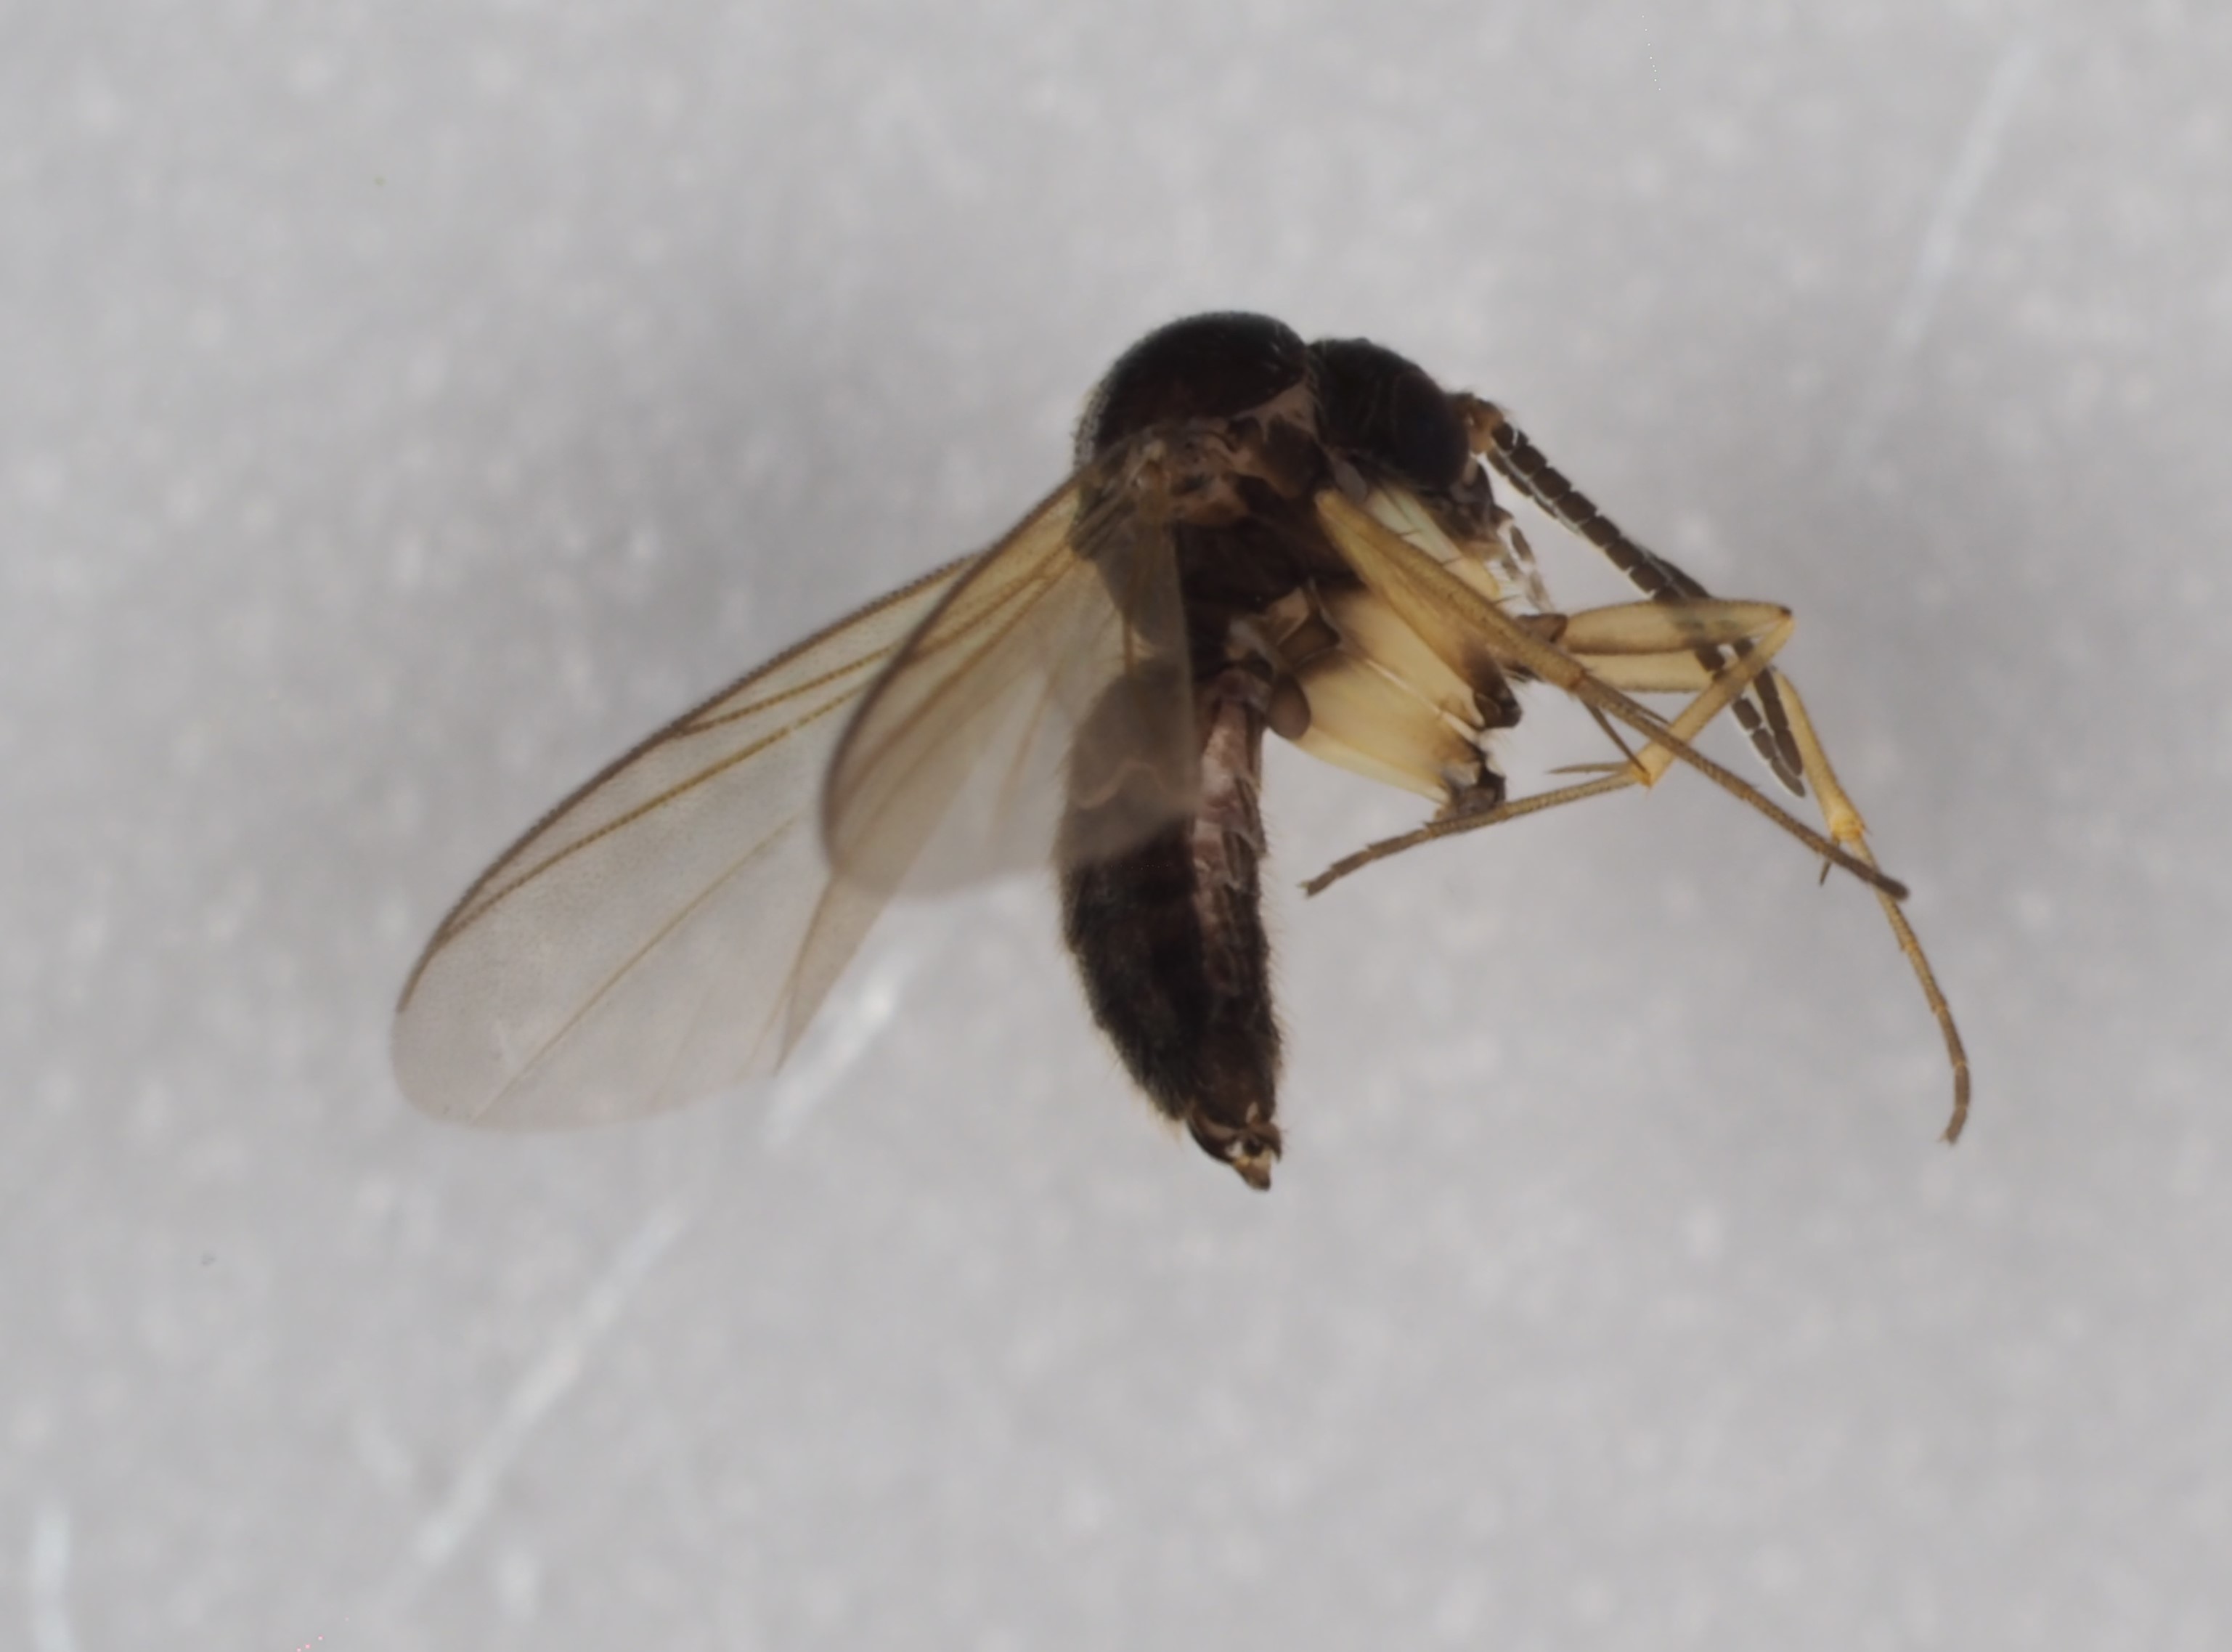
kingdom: Animalia
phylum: Arthropoda
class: Insecta
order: Diptera
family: Mycetophilidae
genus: Azana
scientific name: Azana anomala
